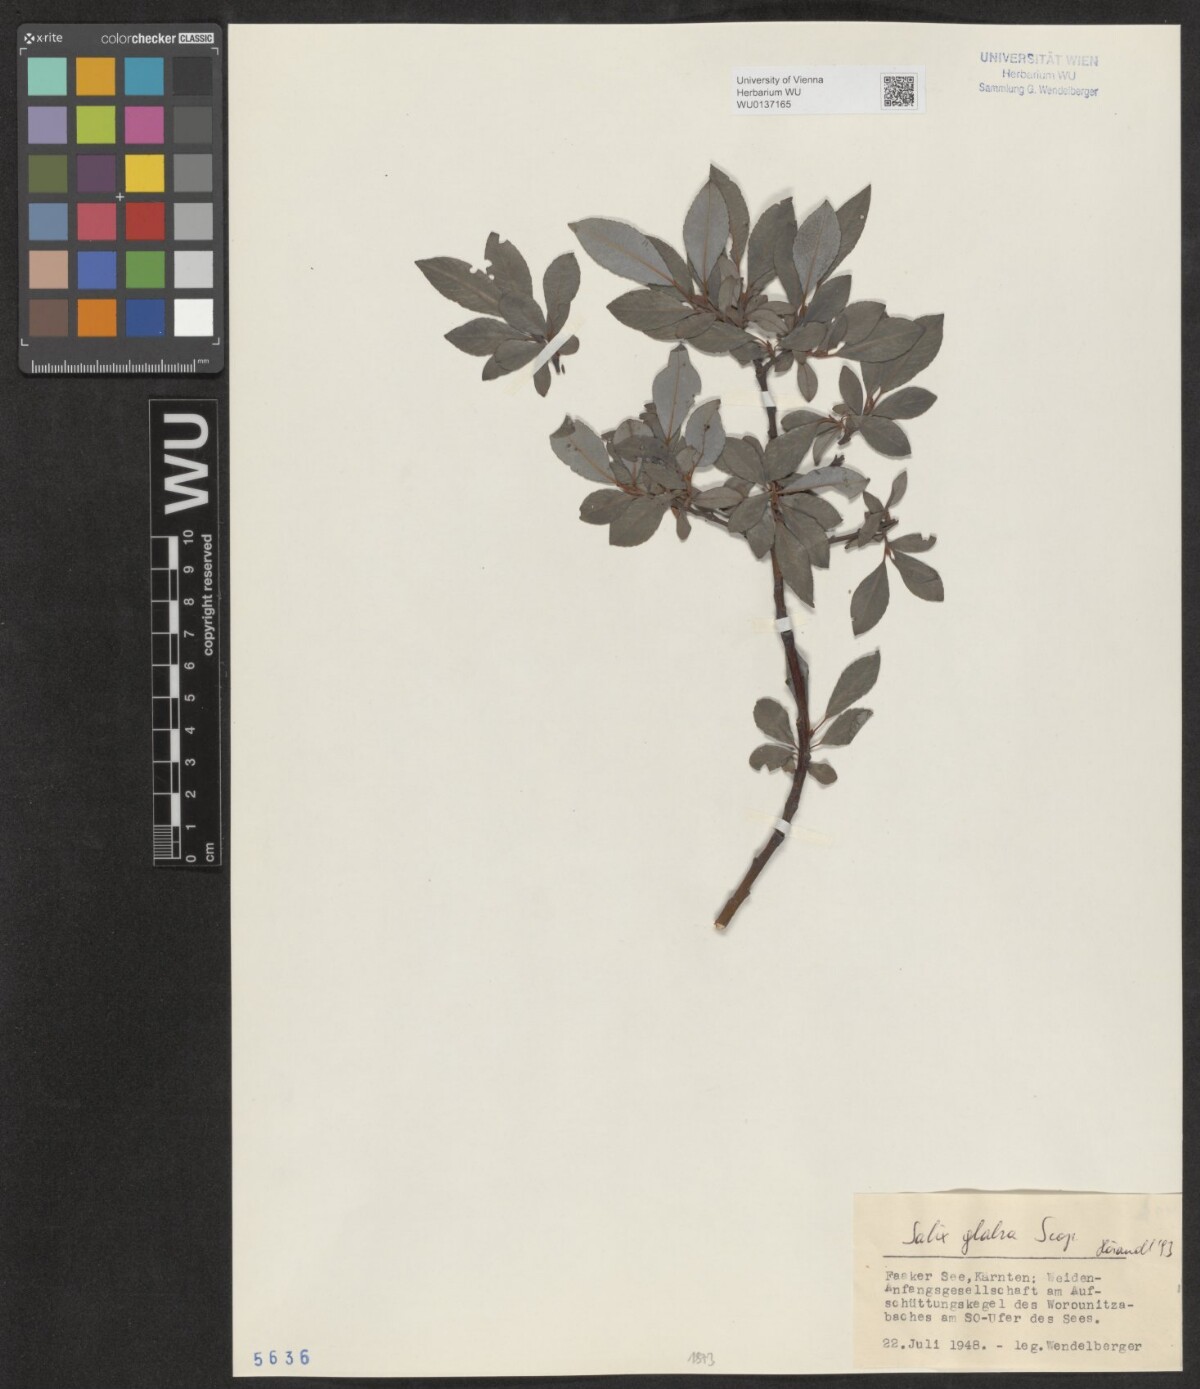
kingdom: Plantae
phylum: Tracheophyta
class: Magnoliopsida
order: Malpighiales
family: Salicaceae
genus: Salix
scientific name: Salix glabra
